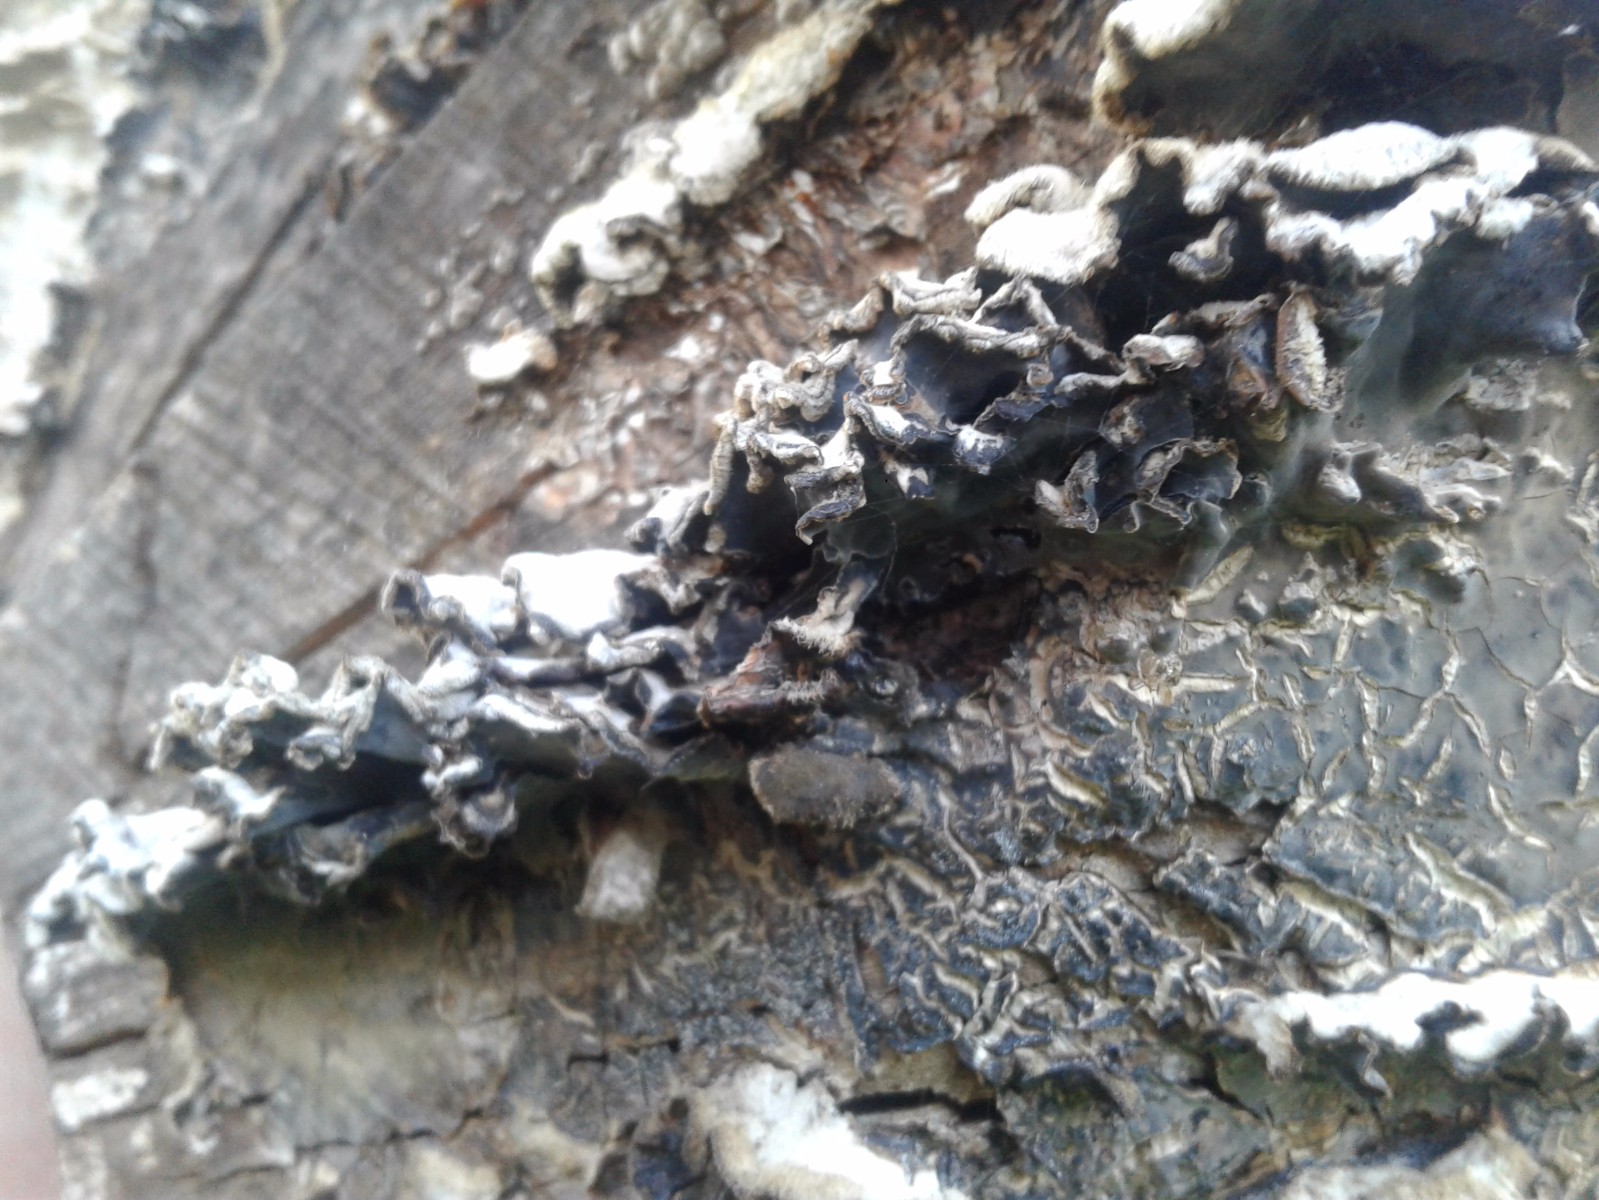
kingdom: Fungi
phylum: Basidiomycota
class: Agaricomycetes
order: Agaricales
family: Cyphellaceae
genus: Chondrostereum
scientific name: Chondrostereum purpureum
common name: purpurlædersvamp
